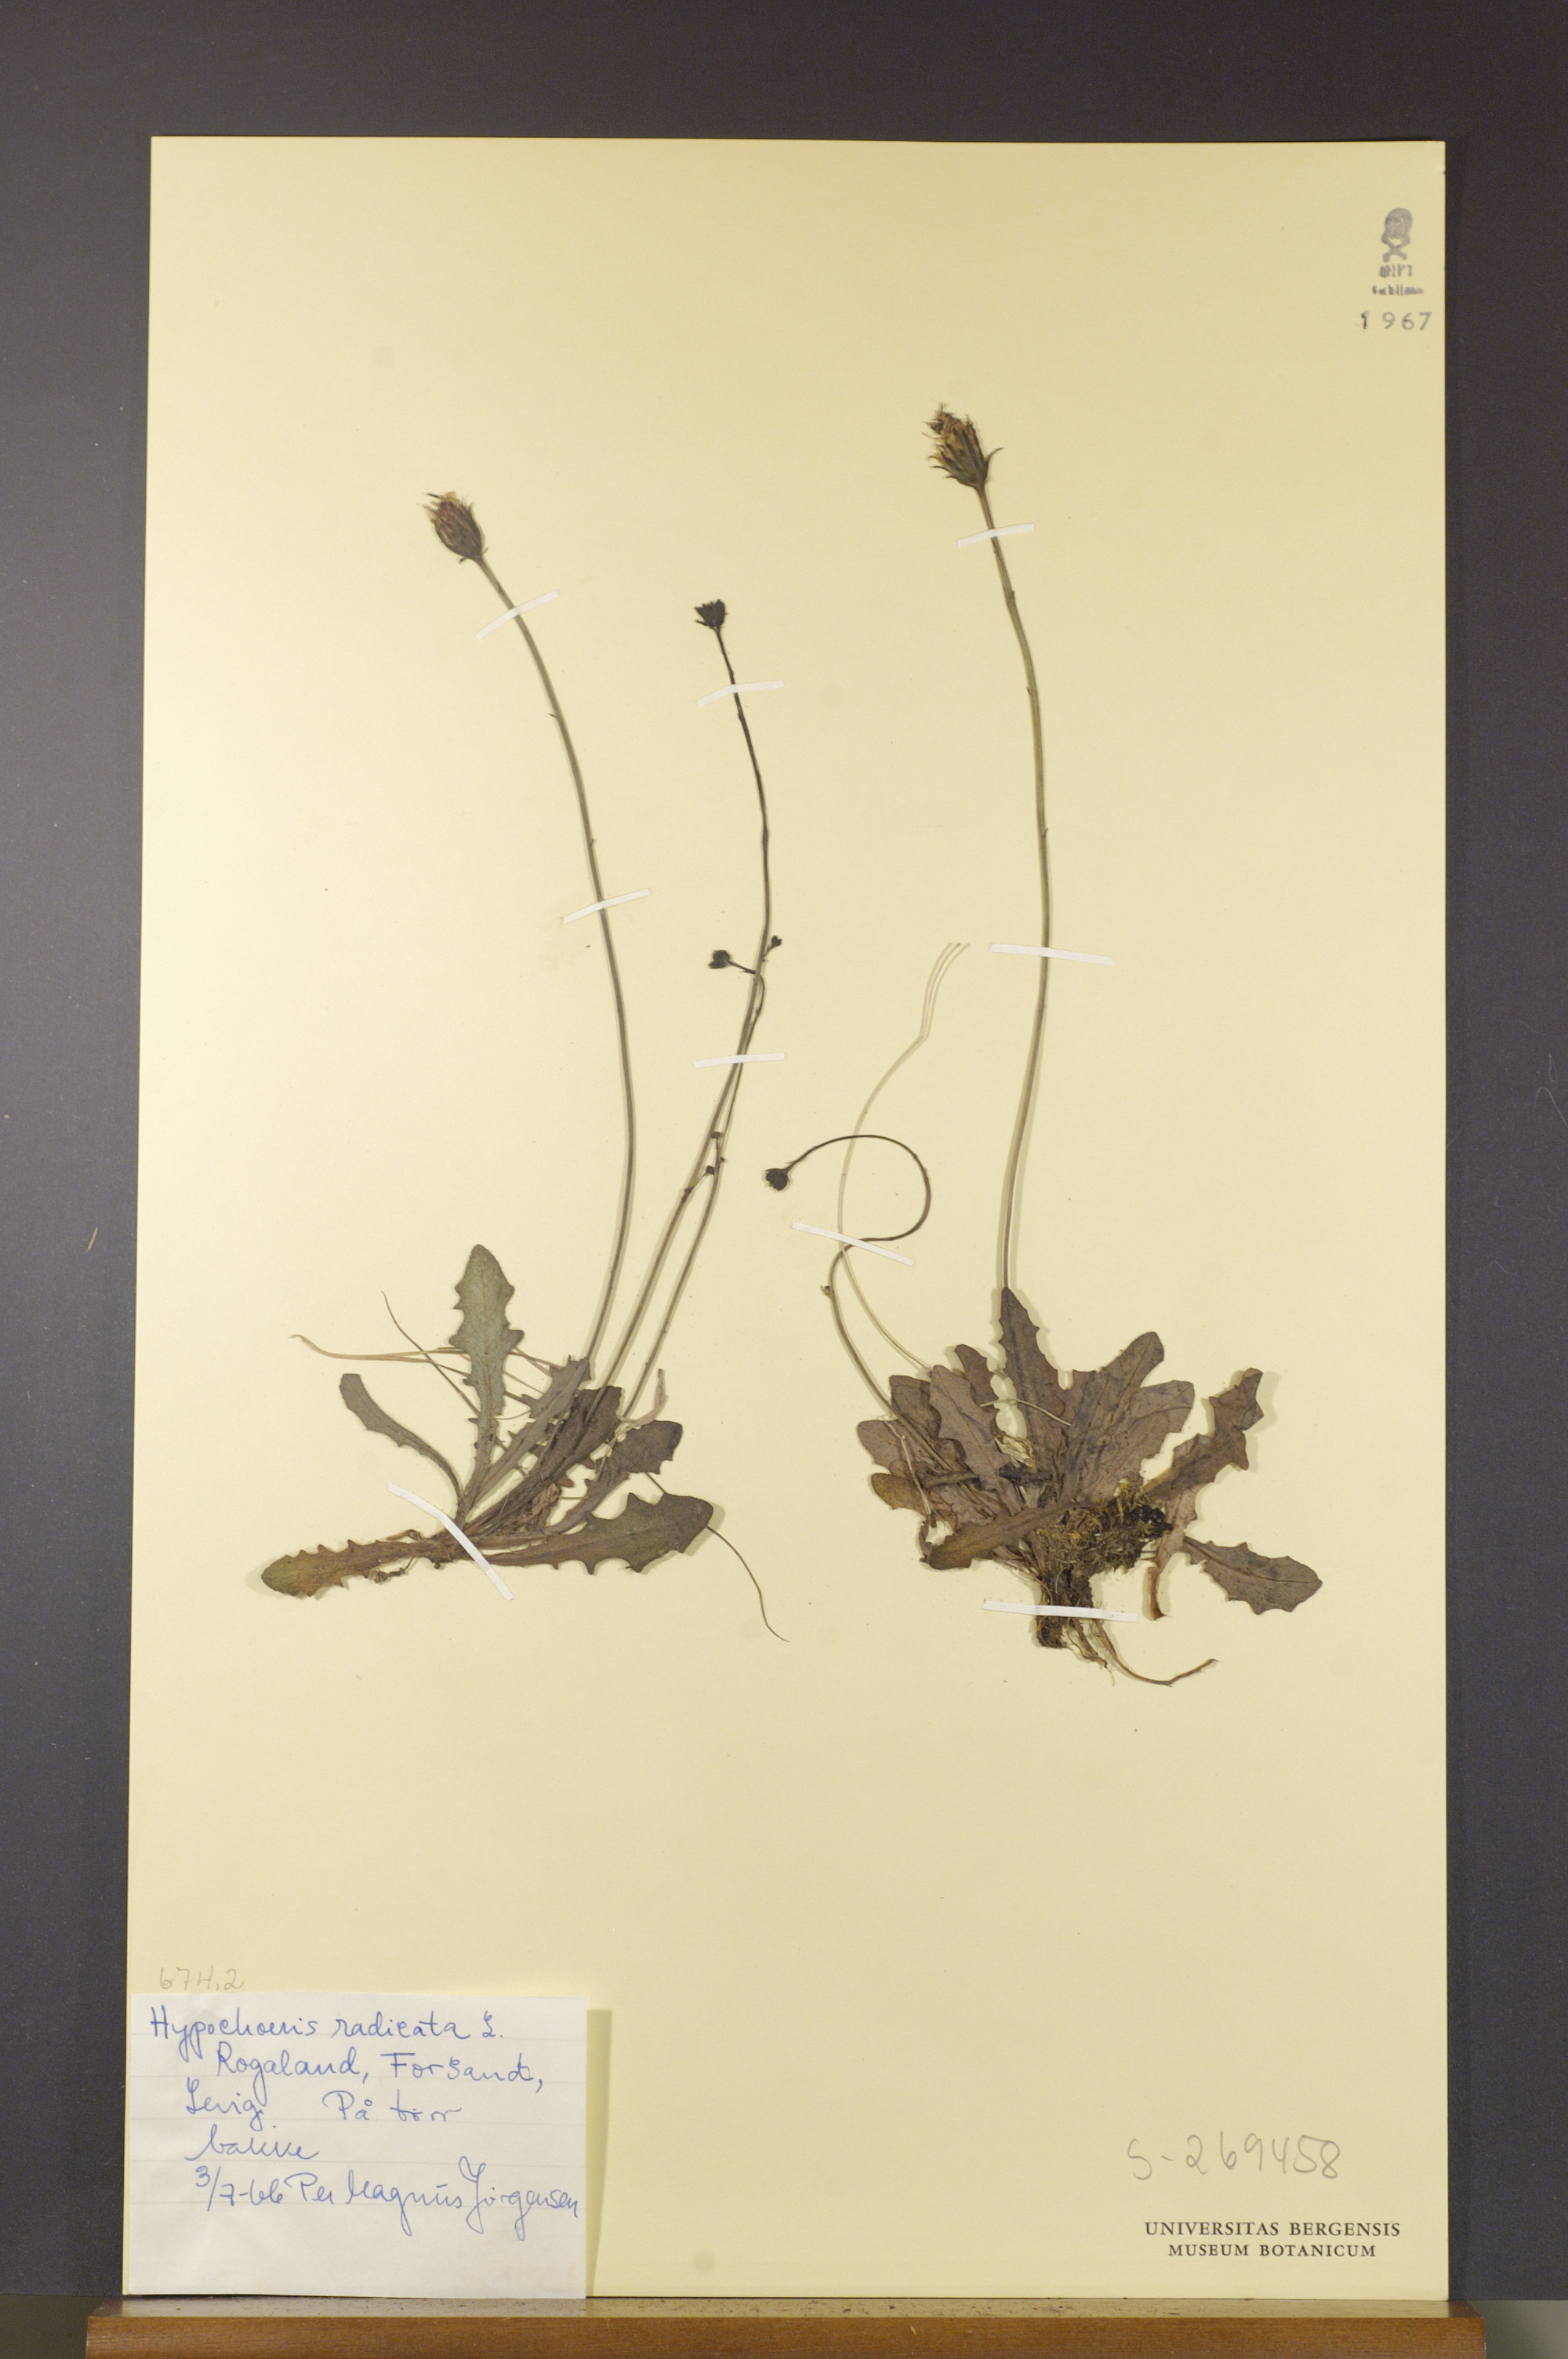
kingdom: Plantae
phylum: Tracheophyta
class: Magnoliopsida
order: Asterales
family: Asteraceae
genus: Hypochaeris
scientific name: Hypochaeris radicata
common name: Flatweed
